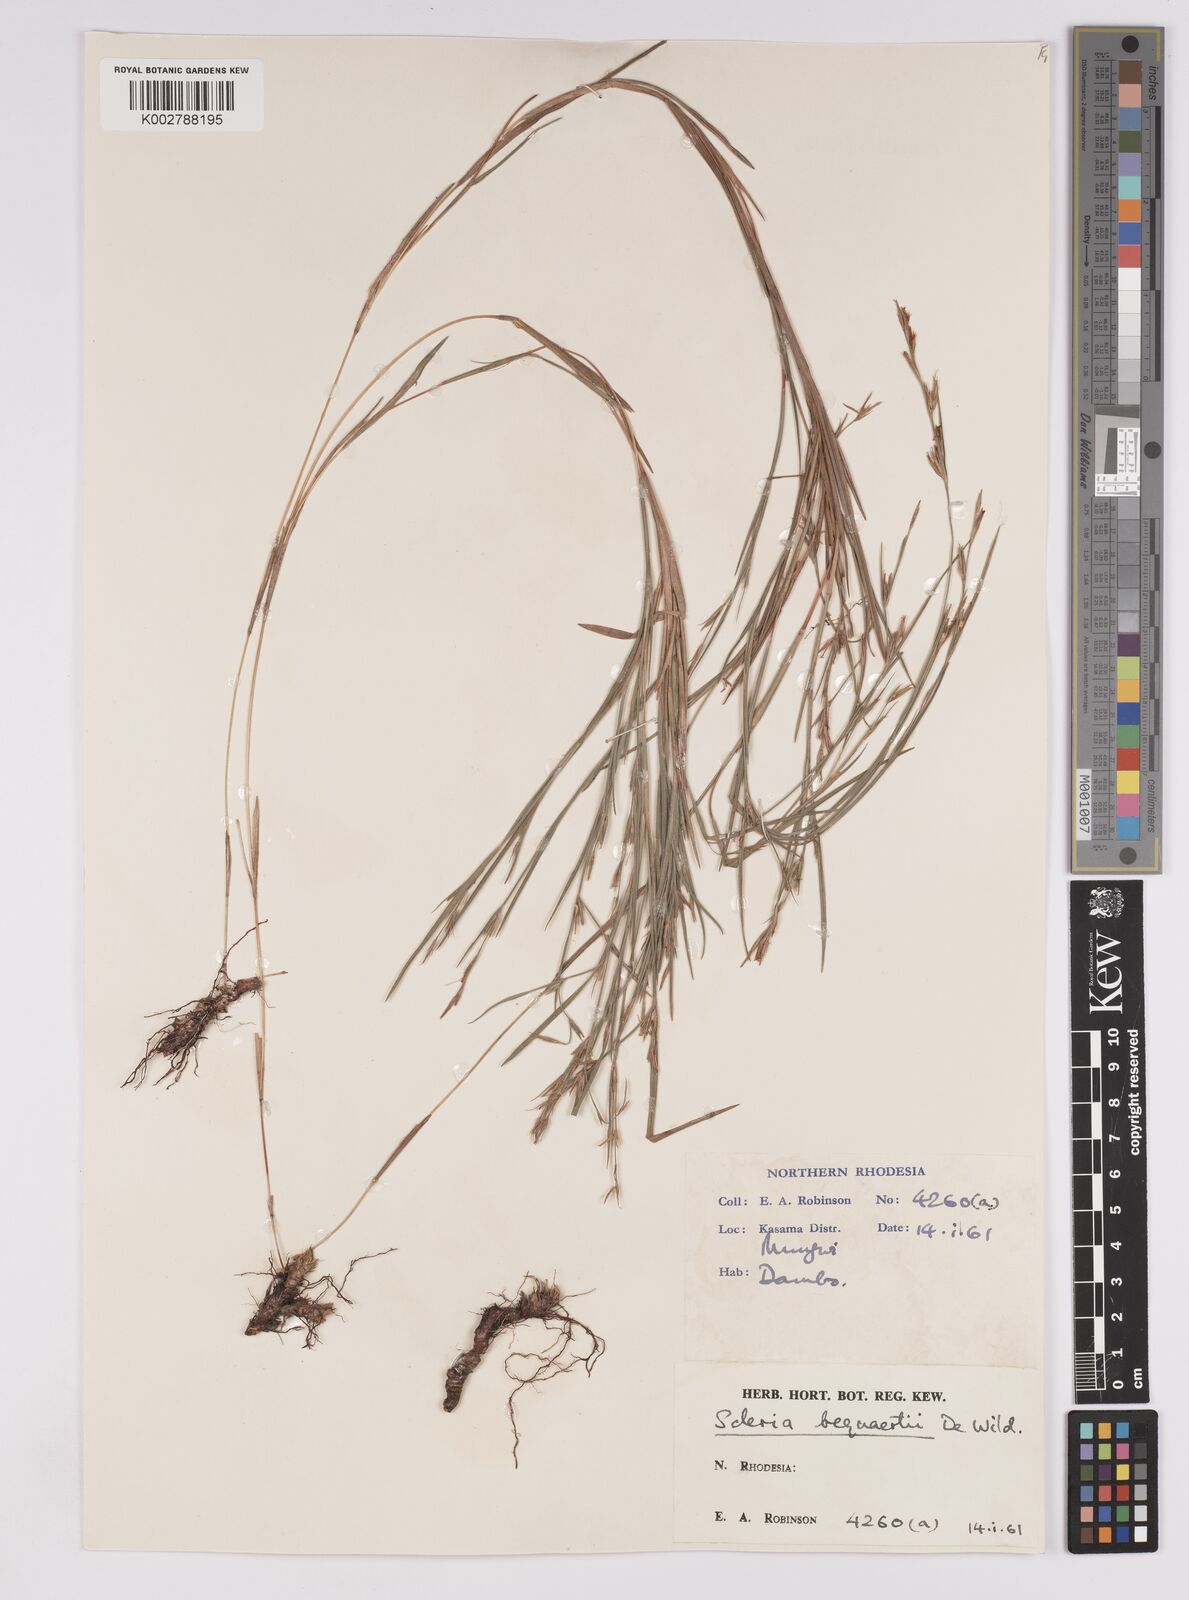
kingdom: Plantae
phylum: Tracheophyta
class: Liliopsida
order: Poales
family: Cyperaceae
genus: Scleria
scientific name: Scleria bequaertii
